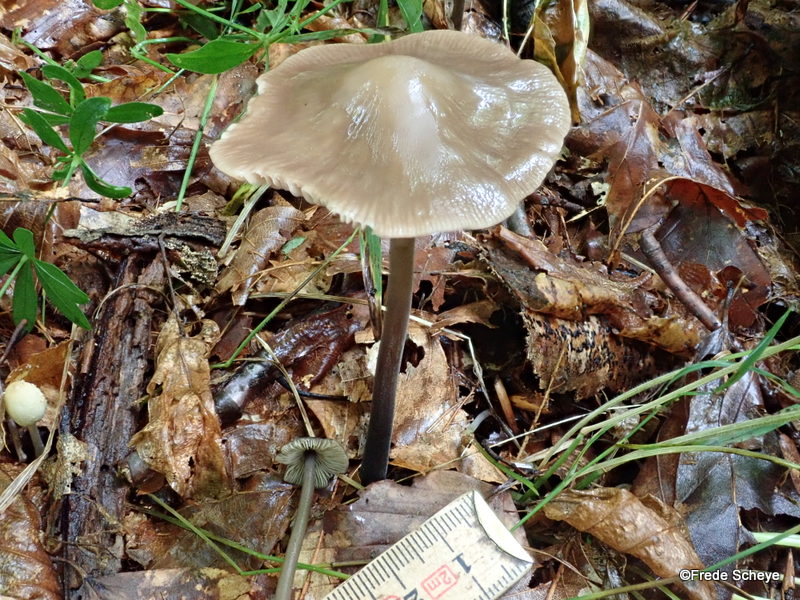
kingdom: Fungi
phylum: Basidiomycota
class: Agaricomycetes
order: Agaricales
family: Omphalotaceae
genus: Mycetinis
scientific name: Mycetinis alliaceus
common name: stor løghat
